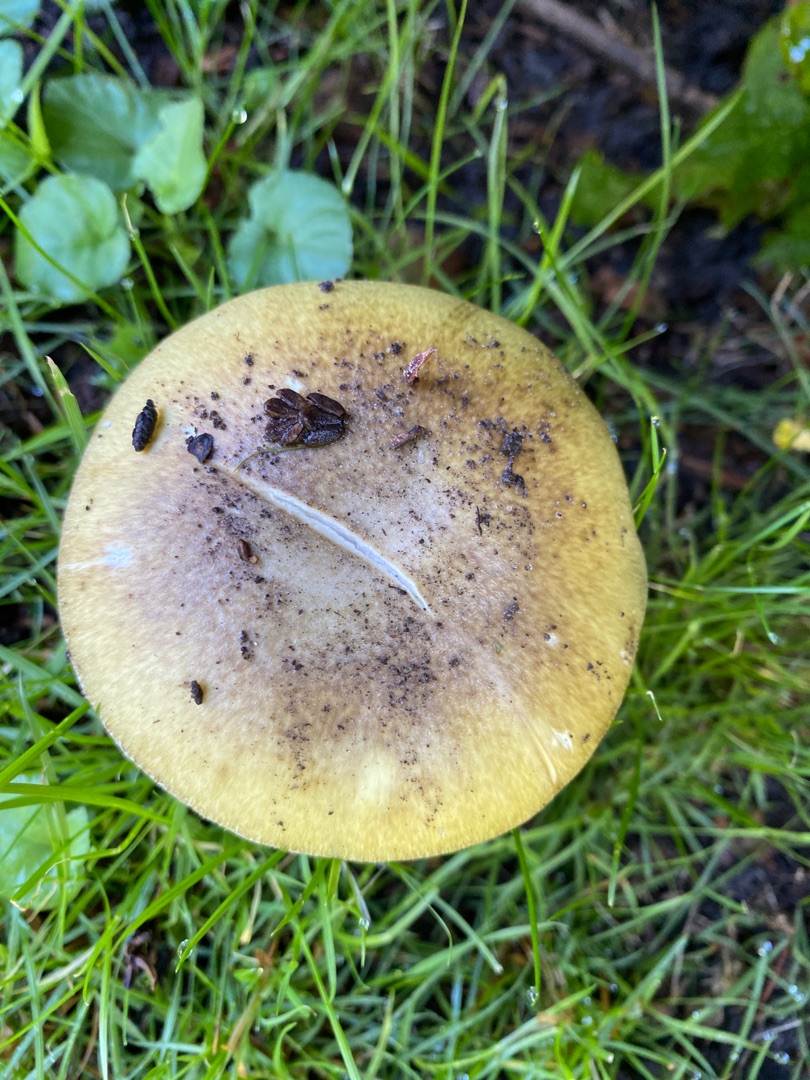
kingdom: Fungi
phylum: Basidiomycota
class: Agaricomycetes
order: Agaricales
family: Amanitaceae
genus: Amanita
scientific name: Amanita phalloides
